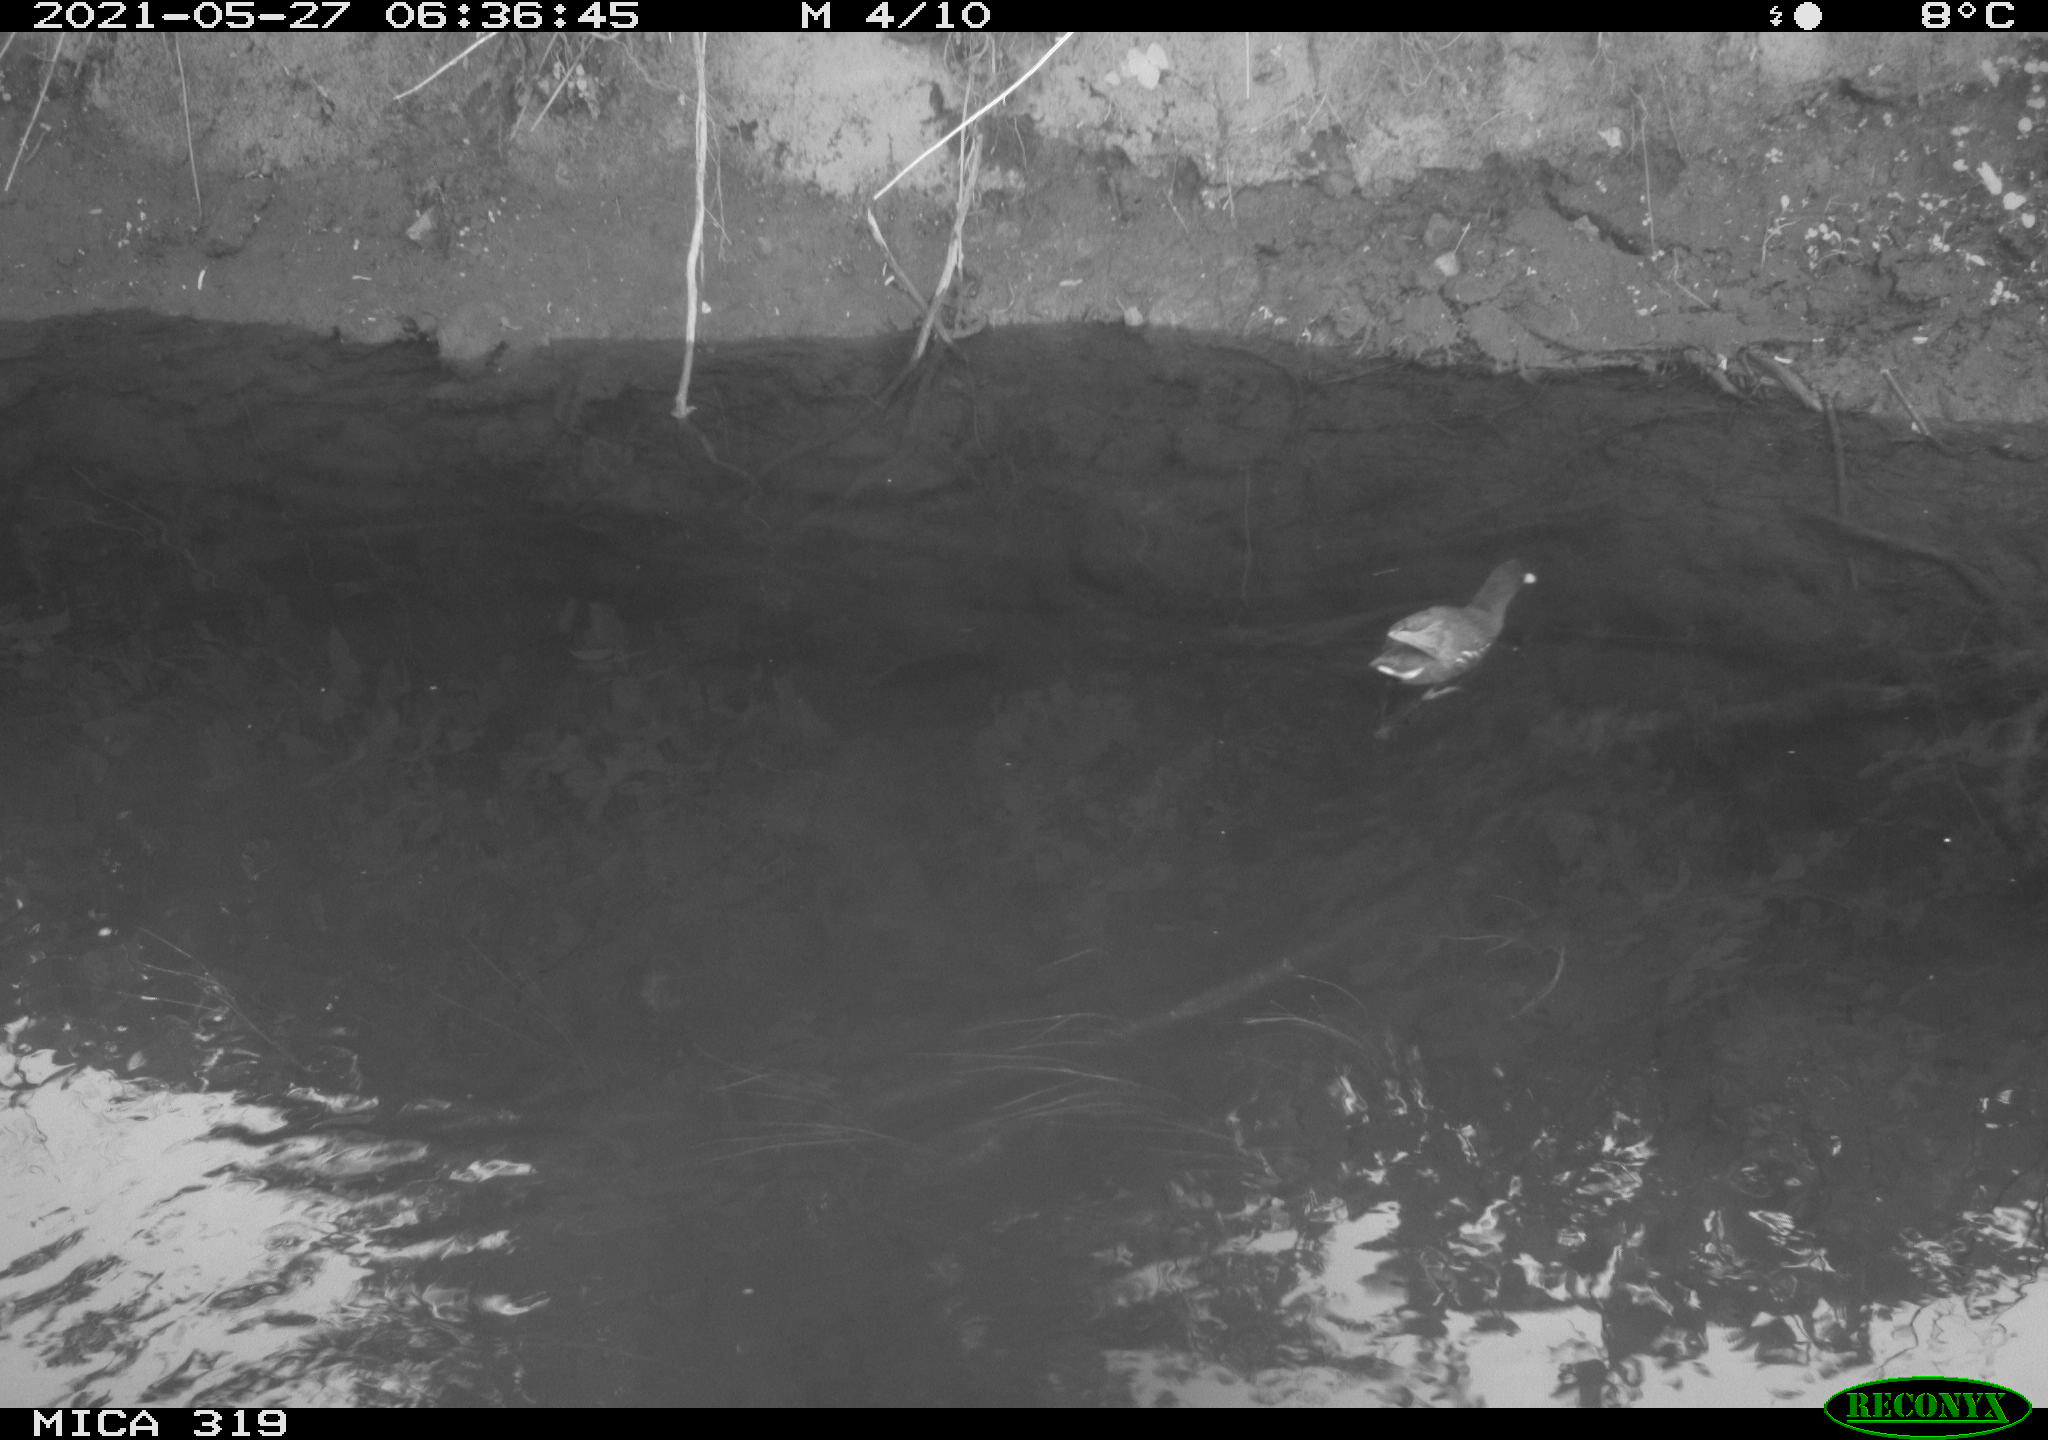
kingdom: Animalia
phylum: Chordata
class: Aves
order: Gruiformes
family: Rallidae
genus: Gallinula
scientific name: Gallinula chloropus
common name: Common moorhen
